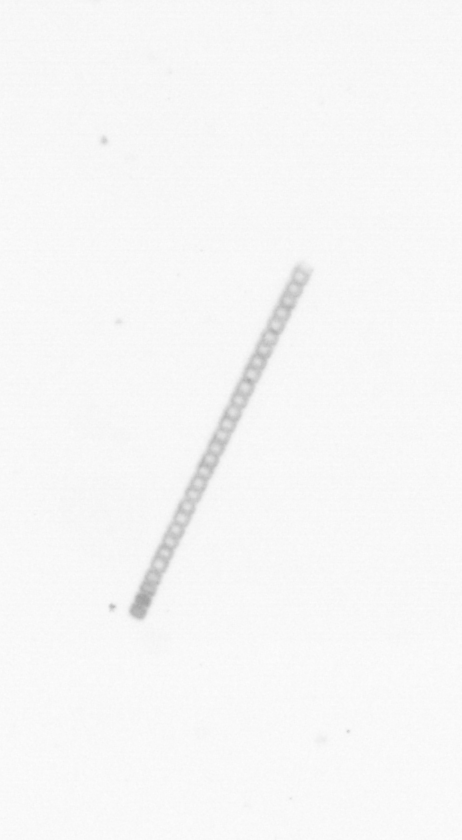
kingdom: Chromista
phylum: Ochrophyta
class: Bacillariophyceae
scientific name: Bacillariophyceae
